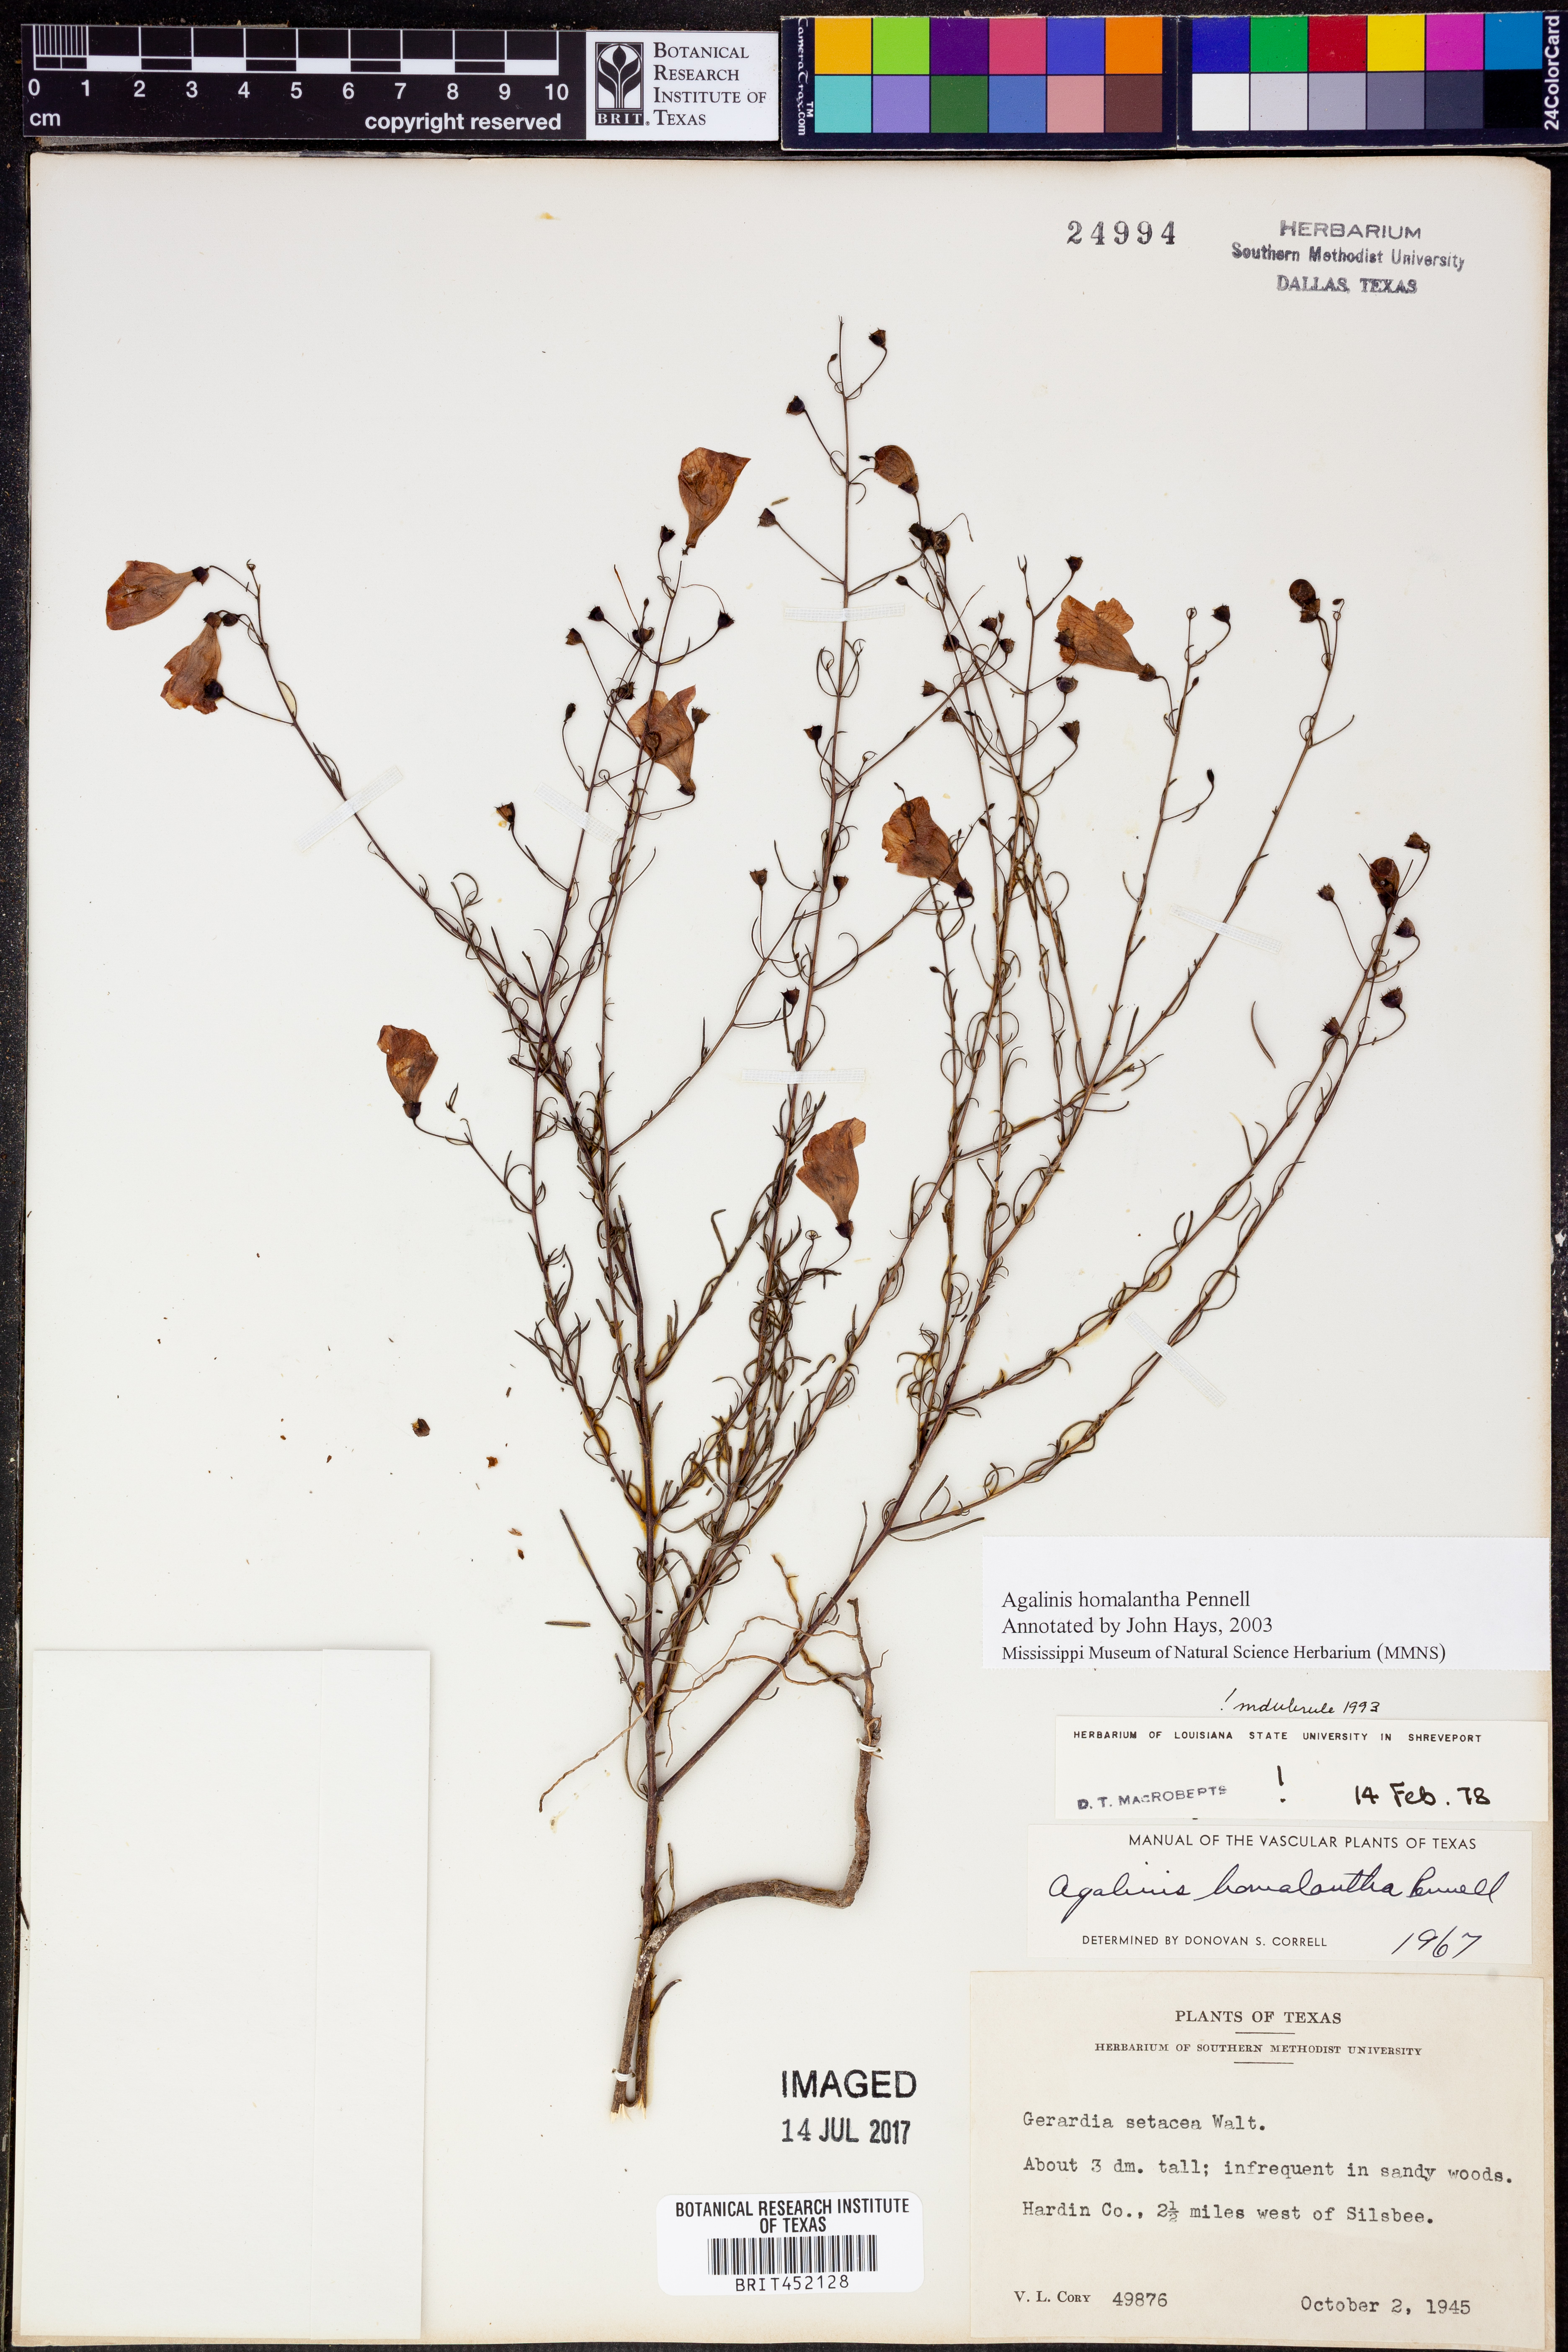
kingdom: Plantae
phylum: Tracheophyta
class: Magnoliopsida
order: Lamiales
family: Orobanchaceae
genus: Agalinis
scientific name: Agalinis homalantha
